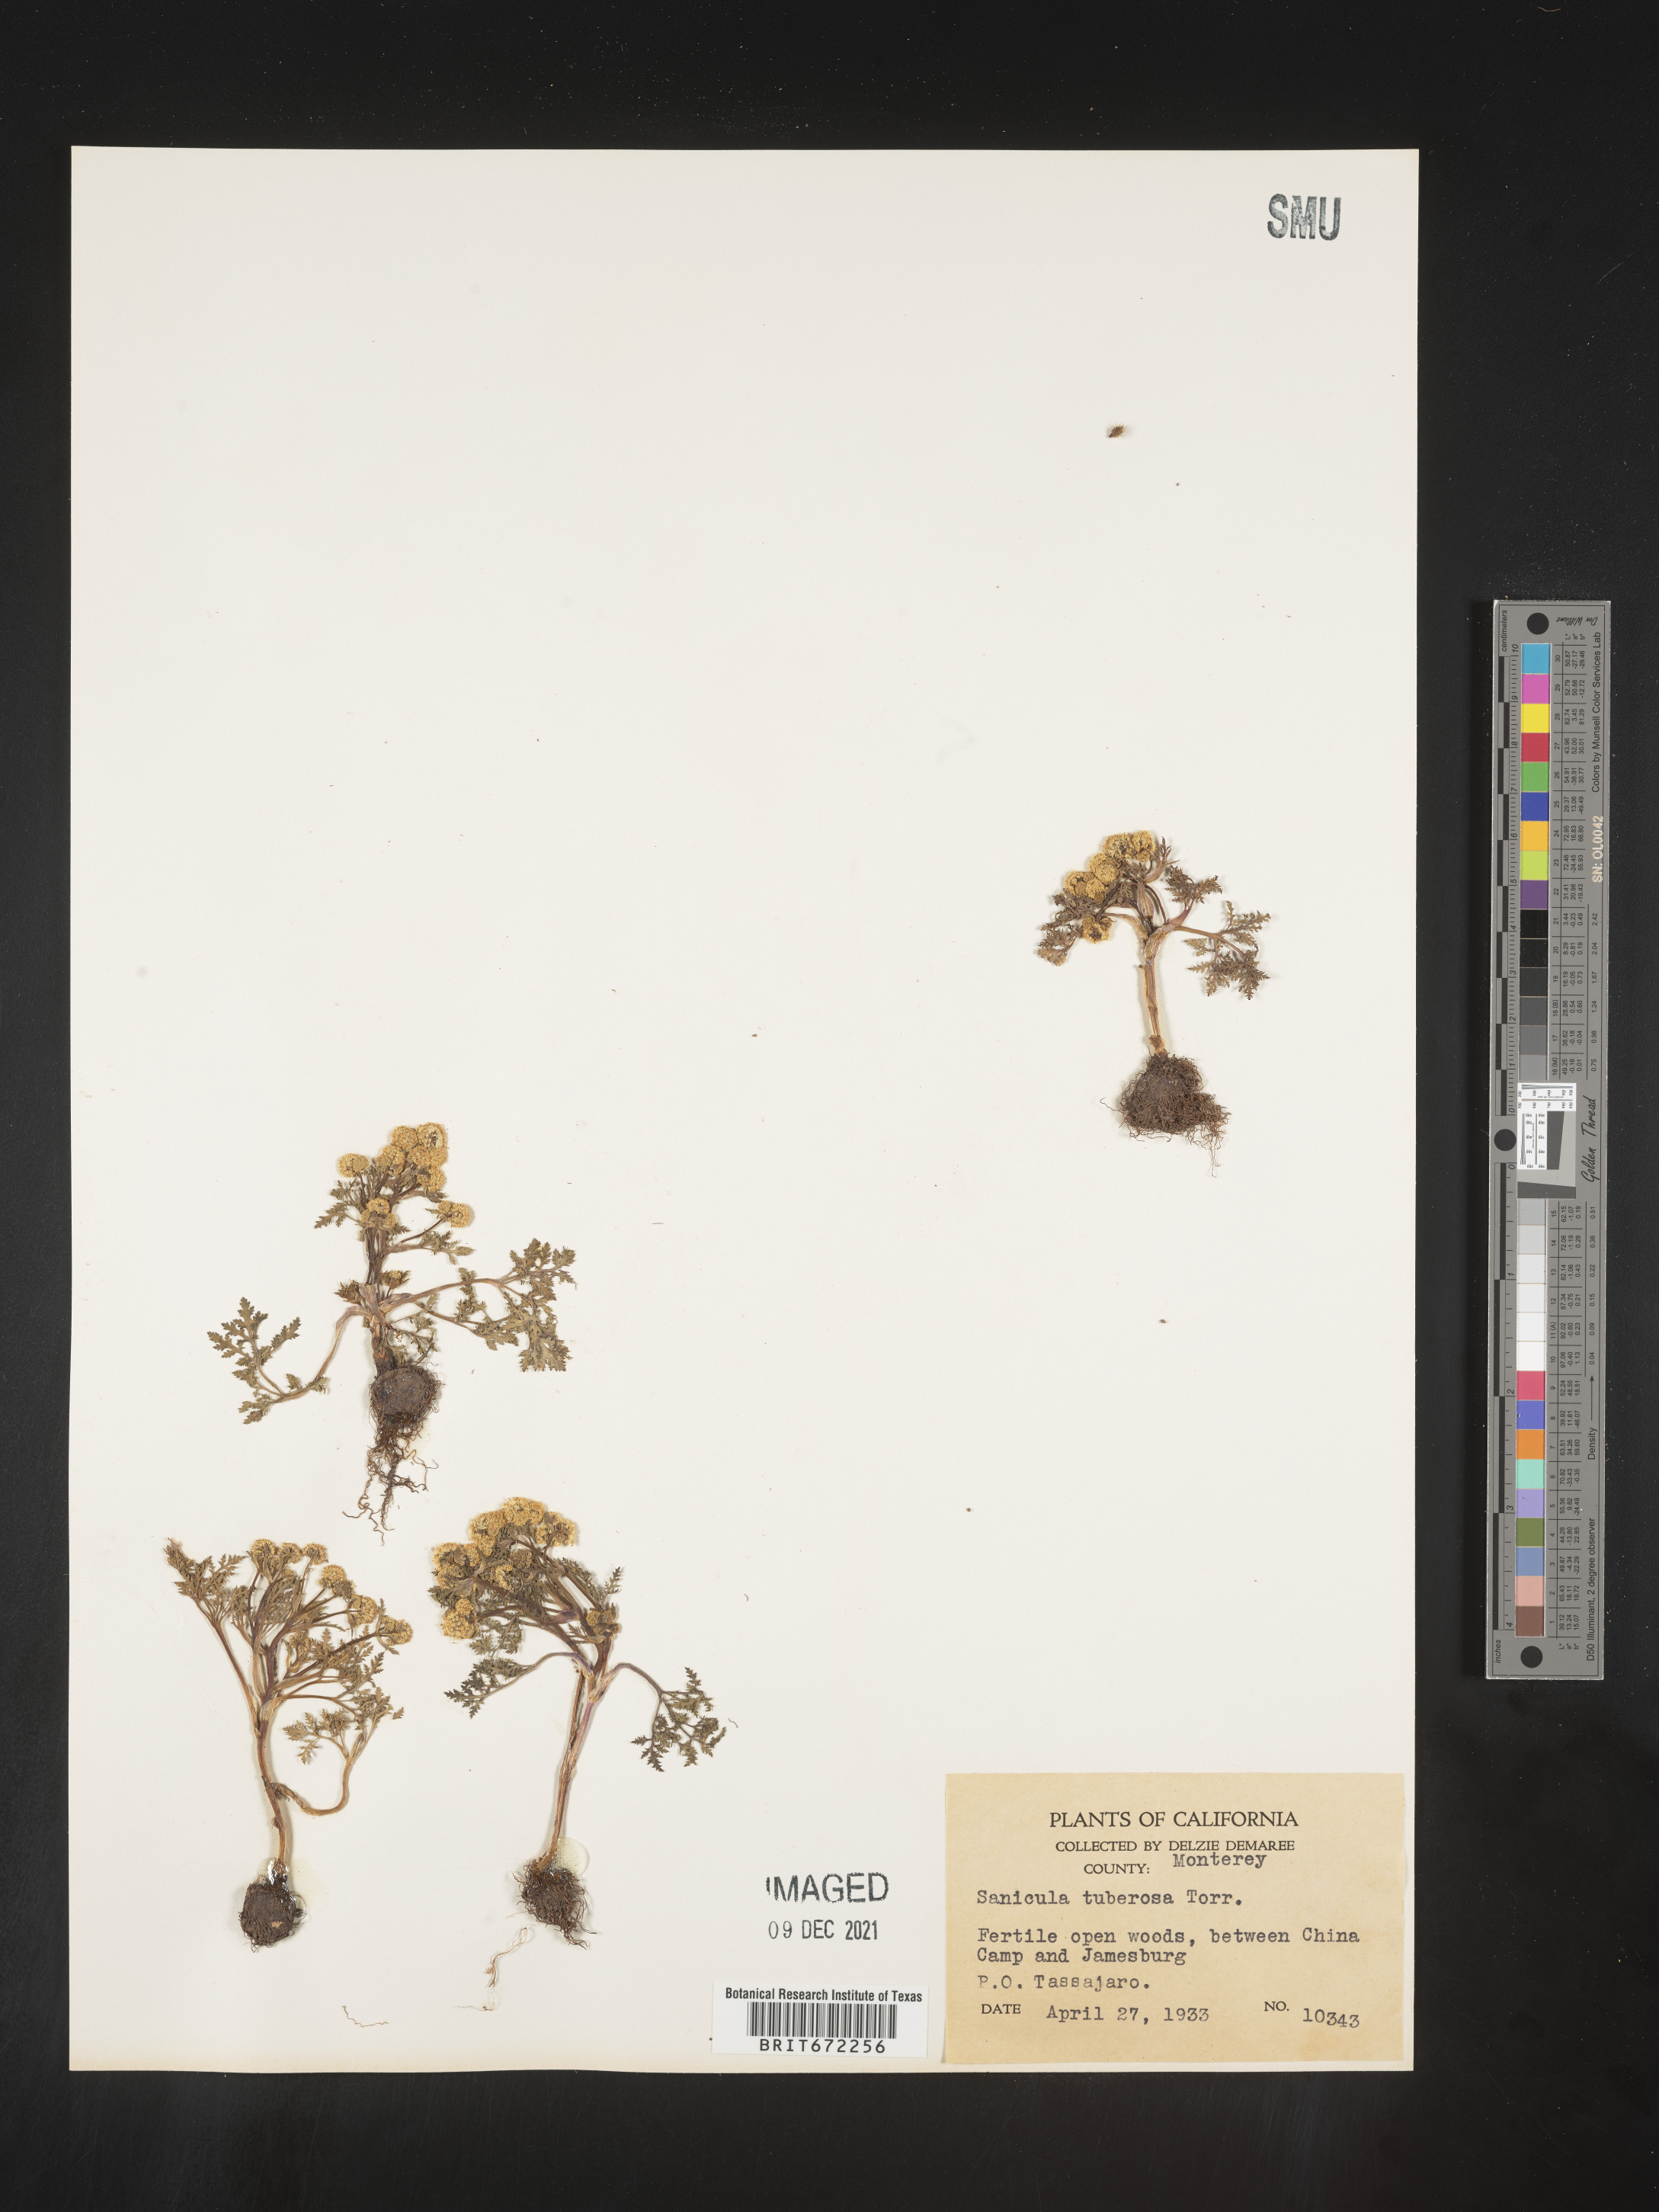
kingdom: Plantae
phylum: Tracheophyta
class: Magnoliopsida
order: Apiales
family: Apiaceae
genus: Sanicula
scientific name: Sanicula
